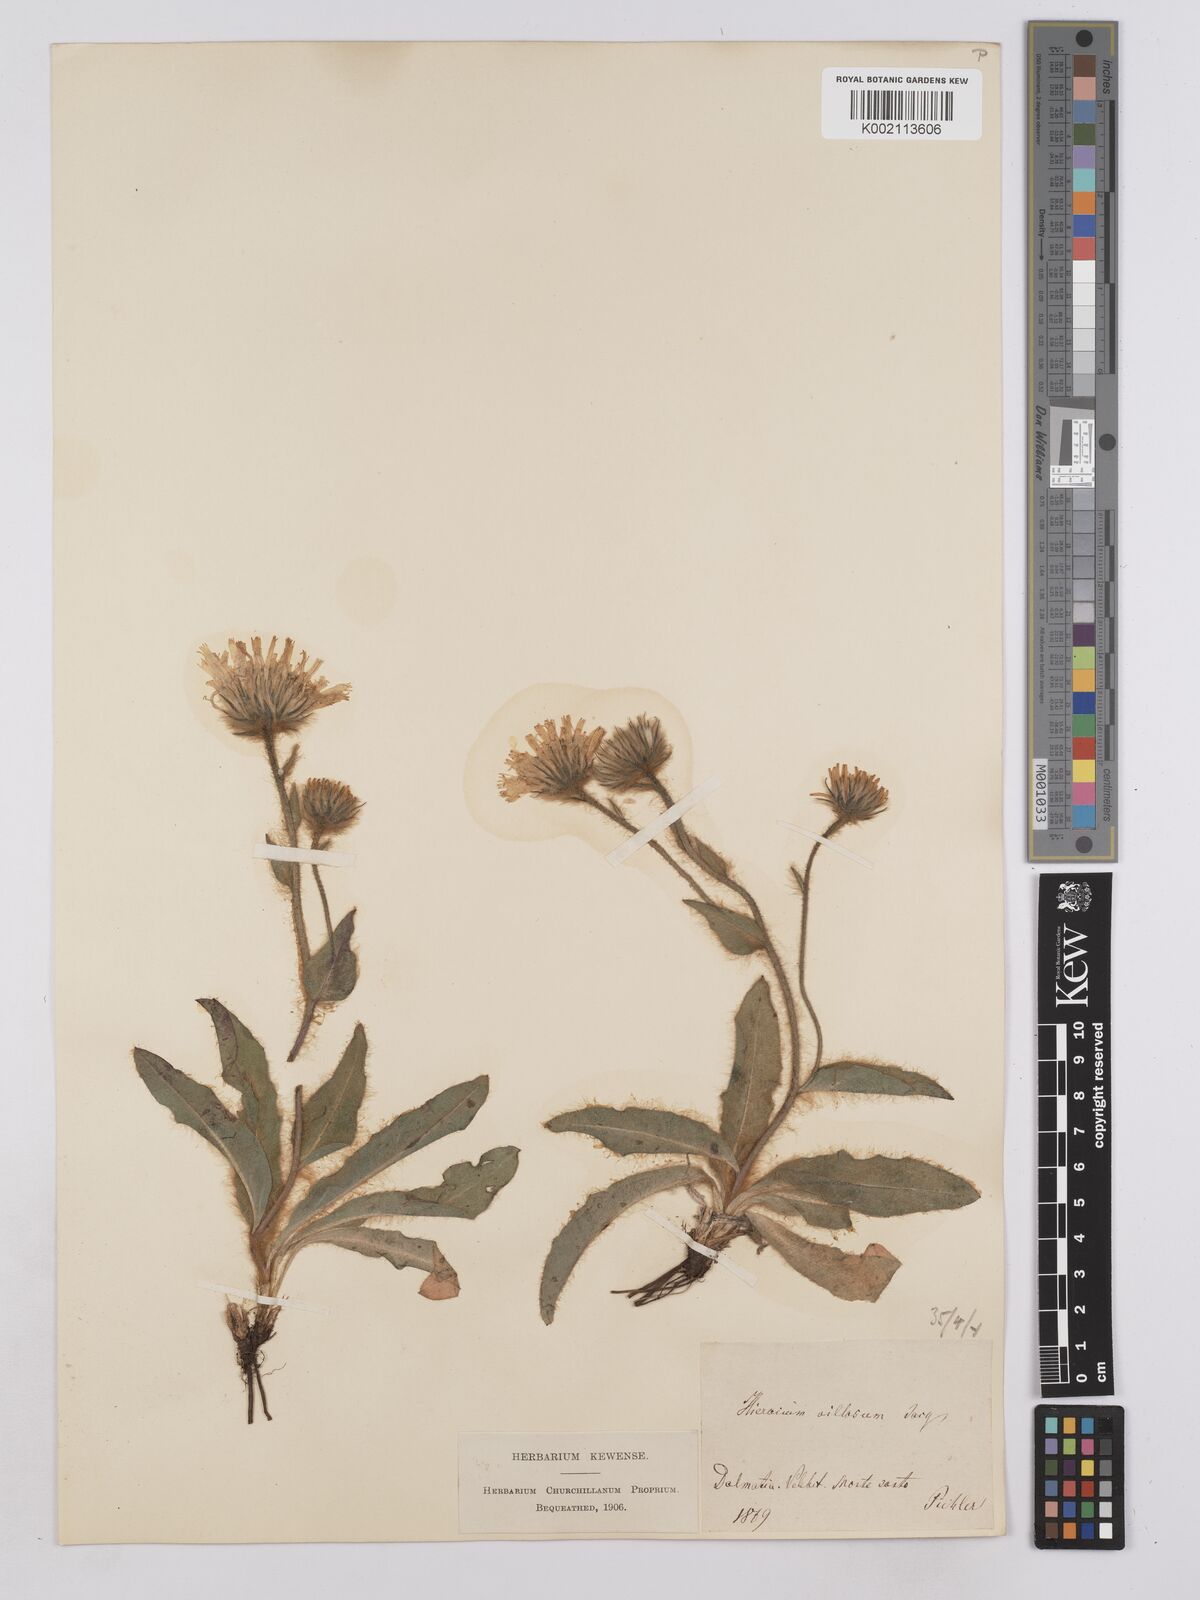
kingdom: Plantae
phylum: Tracheophyta
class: Magnoliopsida
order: Asterales
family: Asteraceae
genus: Hieracium
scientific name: Hieracium villosum
